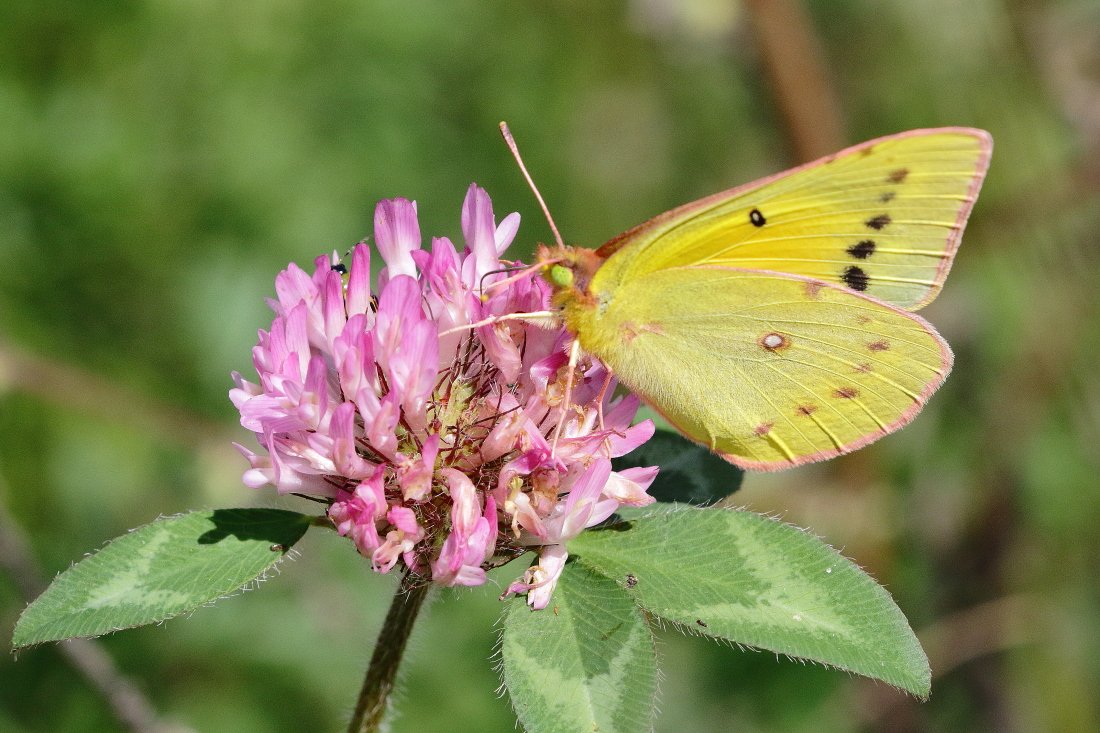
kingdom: Animalia
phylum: Arthropoda
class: Insecta
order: Lepidoptera
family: Pieridae
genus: Colias
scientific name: Colias eurytheme
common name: Orange Sulphur
